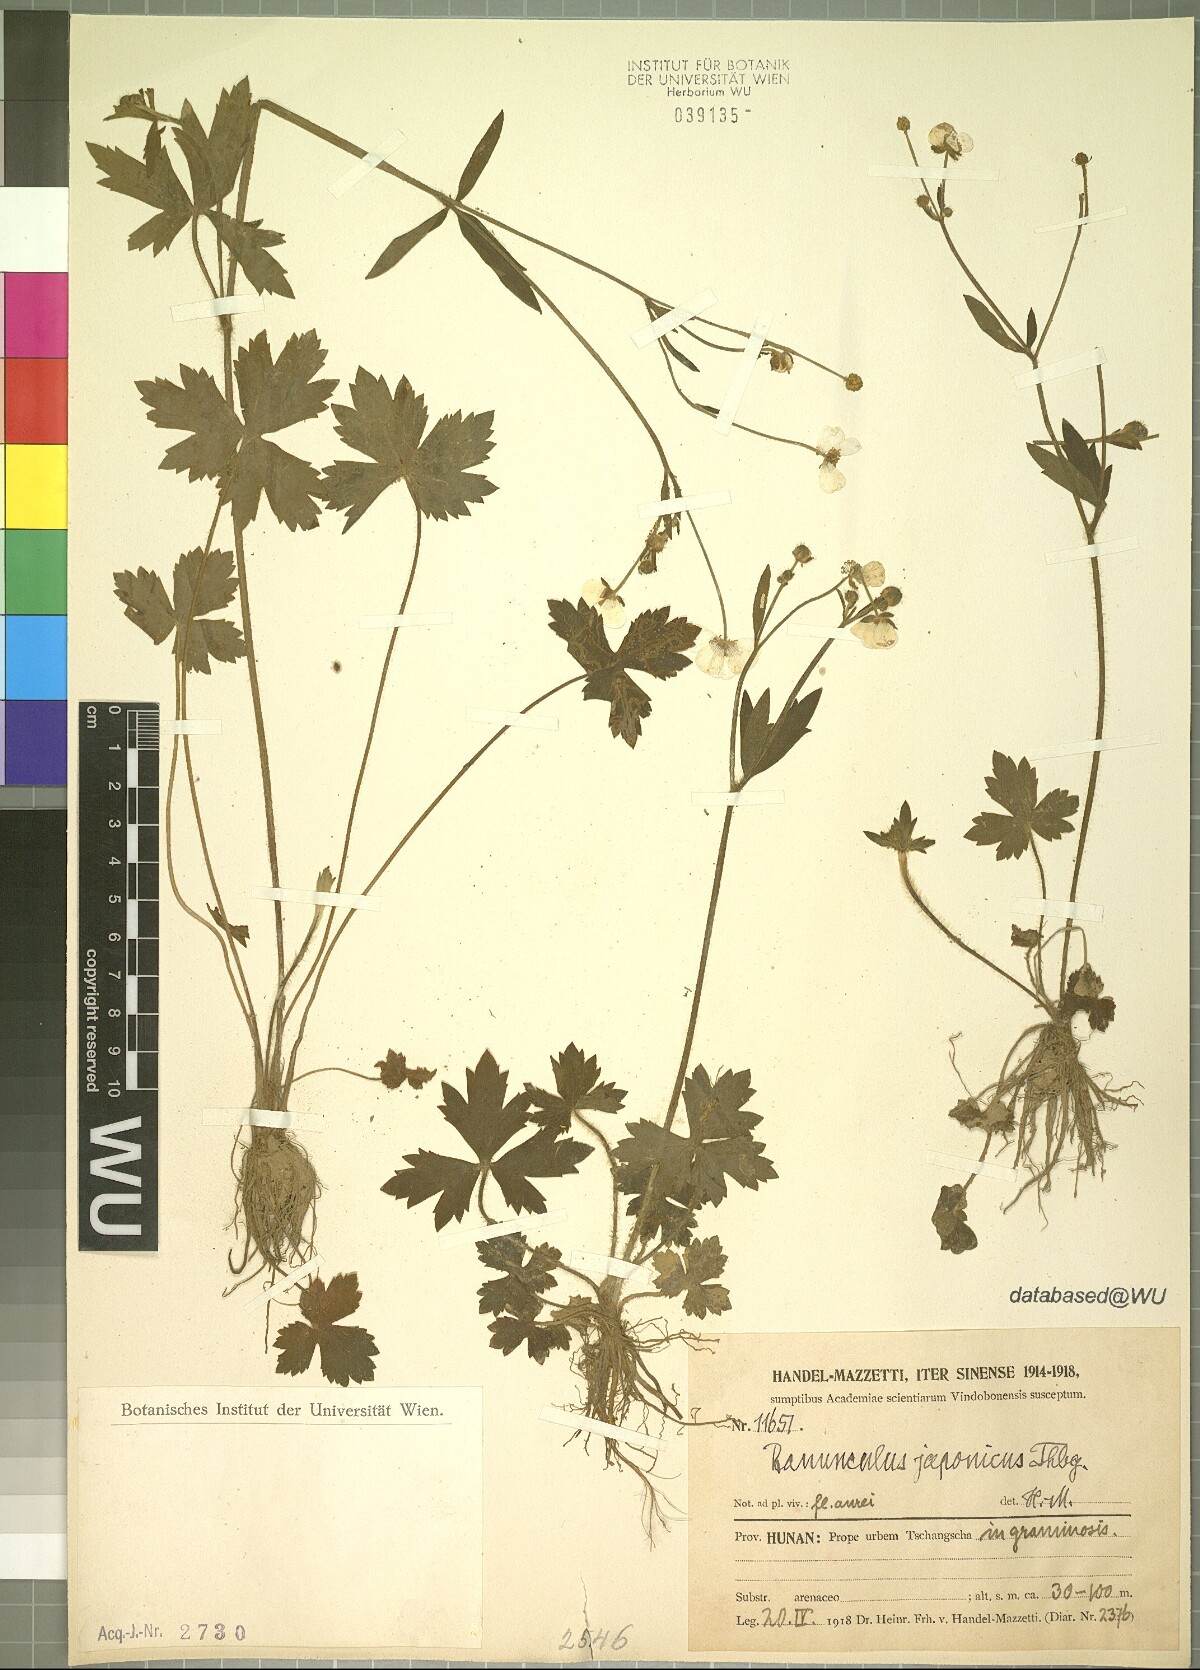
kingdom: Plantae
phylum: Tracheophyta
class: Magnoliopsida
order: Ranunculales
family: Ranunculaceae
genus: Ranunculus
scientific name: Ranunculus japonicus
